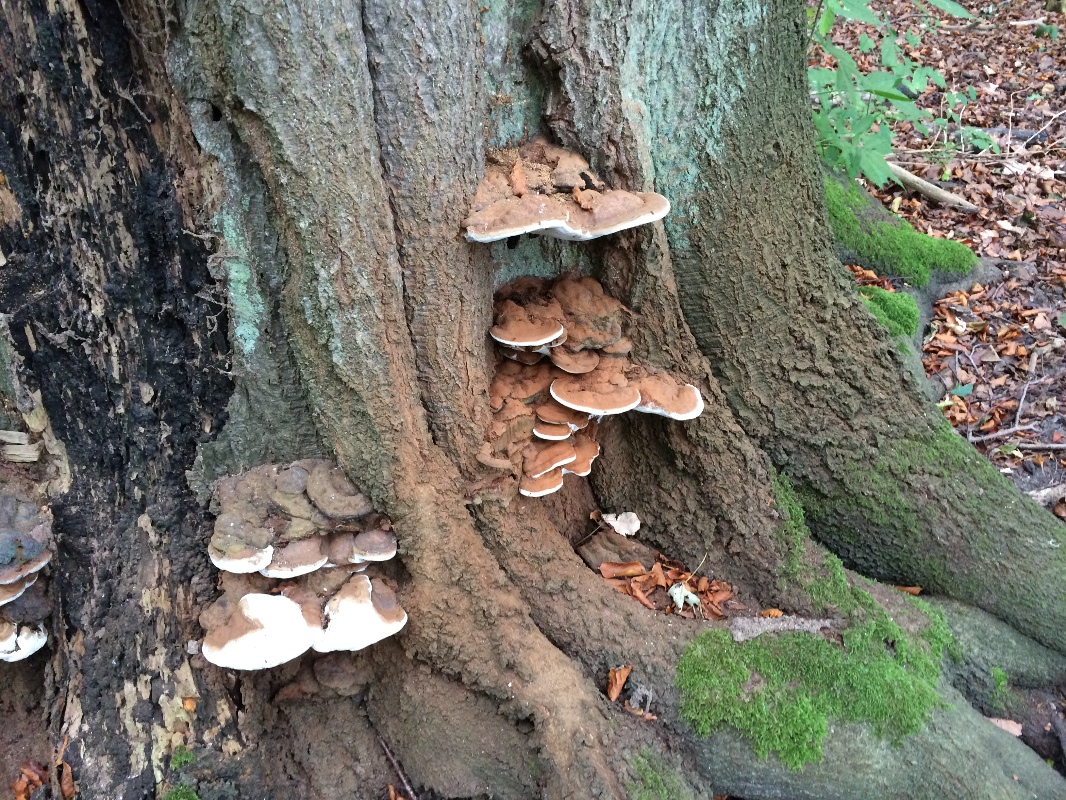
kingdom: Fungi
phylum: Basidiomycota
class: Agaricomycetes
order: Polyporales
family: Polyporaceae
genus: Ganoderma
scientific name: Ganoderma pfeifferi
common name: kobberrød lakporesvamp
